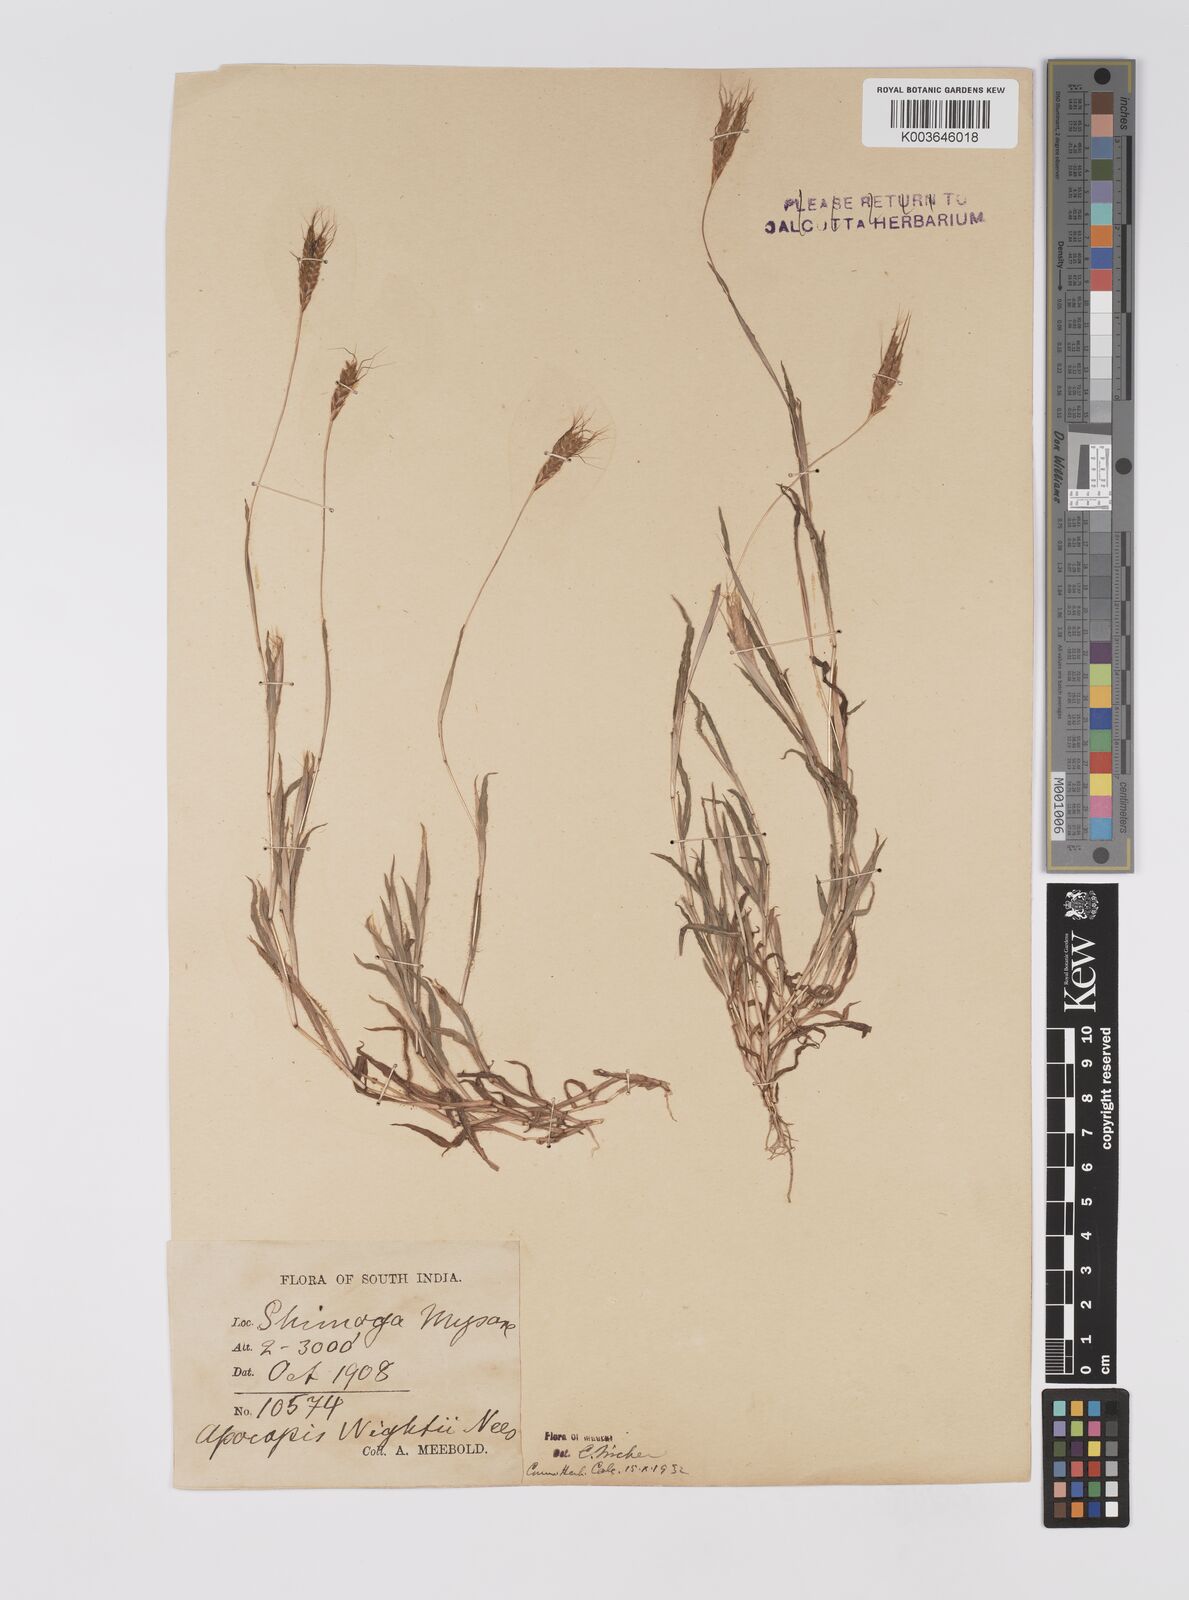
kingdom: Plantae
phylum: Tracheophyta
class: Liliopsida
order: Poales
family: Poaceae
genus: Apocopis
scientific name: Apocopis mangalorensis
